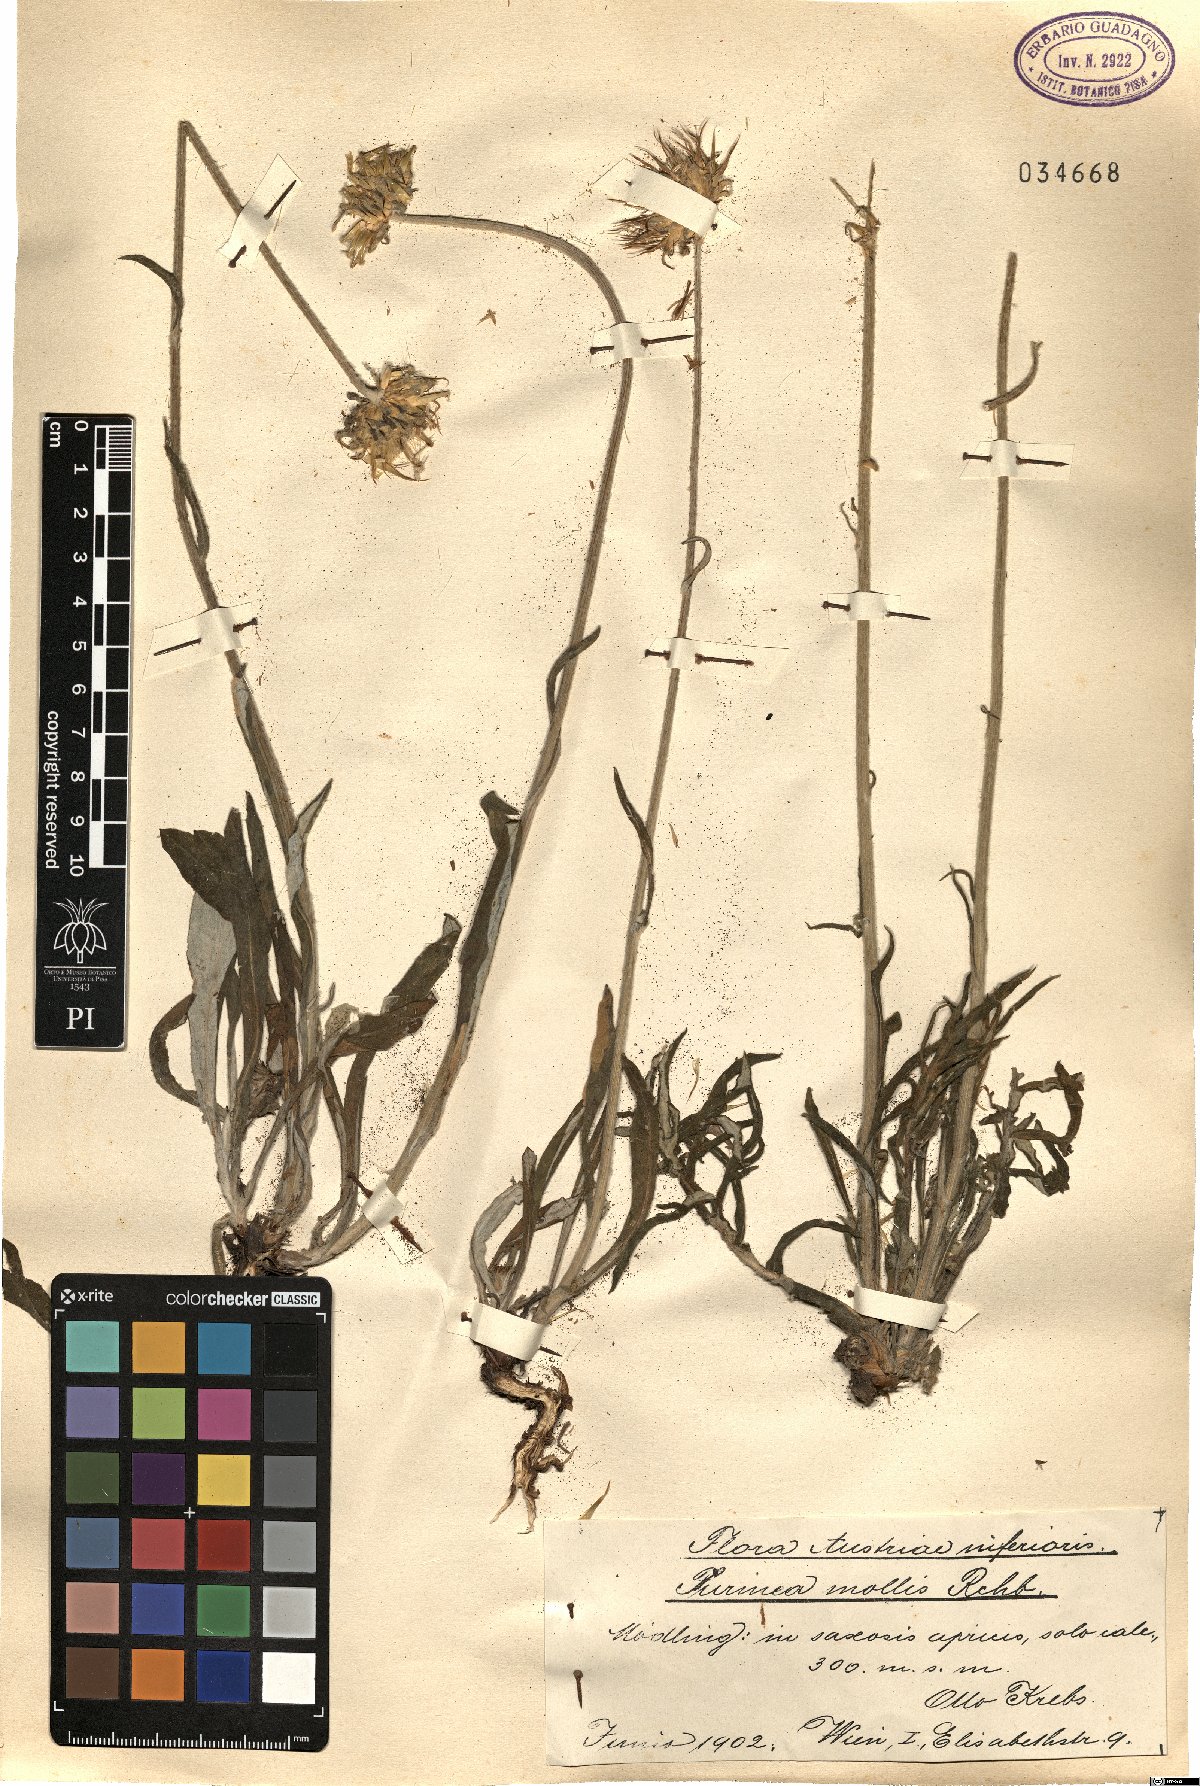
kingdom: Plantae
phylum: Tracheophyta
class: Magnoliopsida
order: Asterales
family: Asteraceae
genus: Jurinea
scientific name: Jurinea mollis
